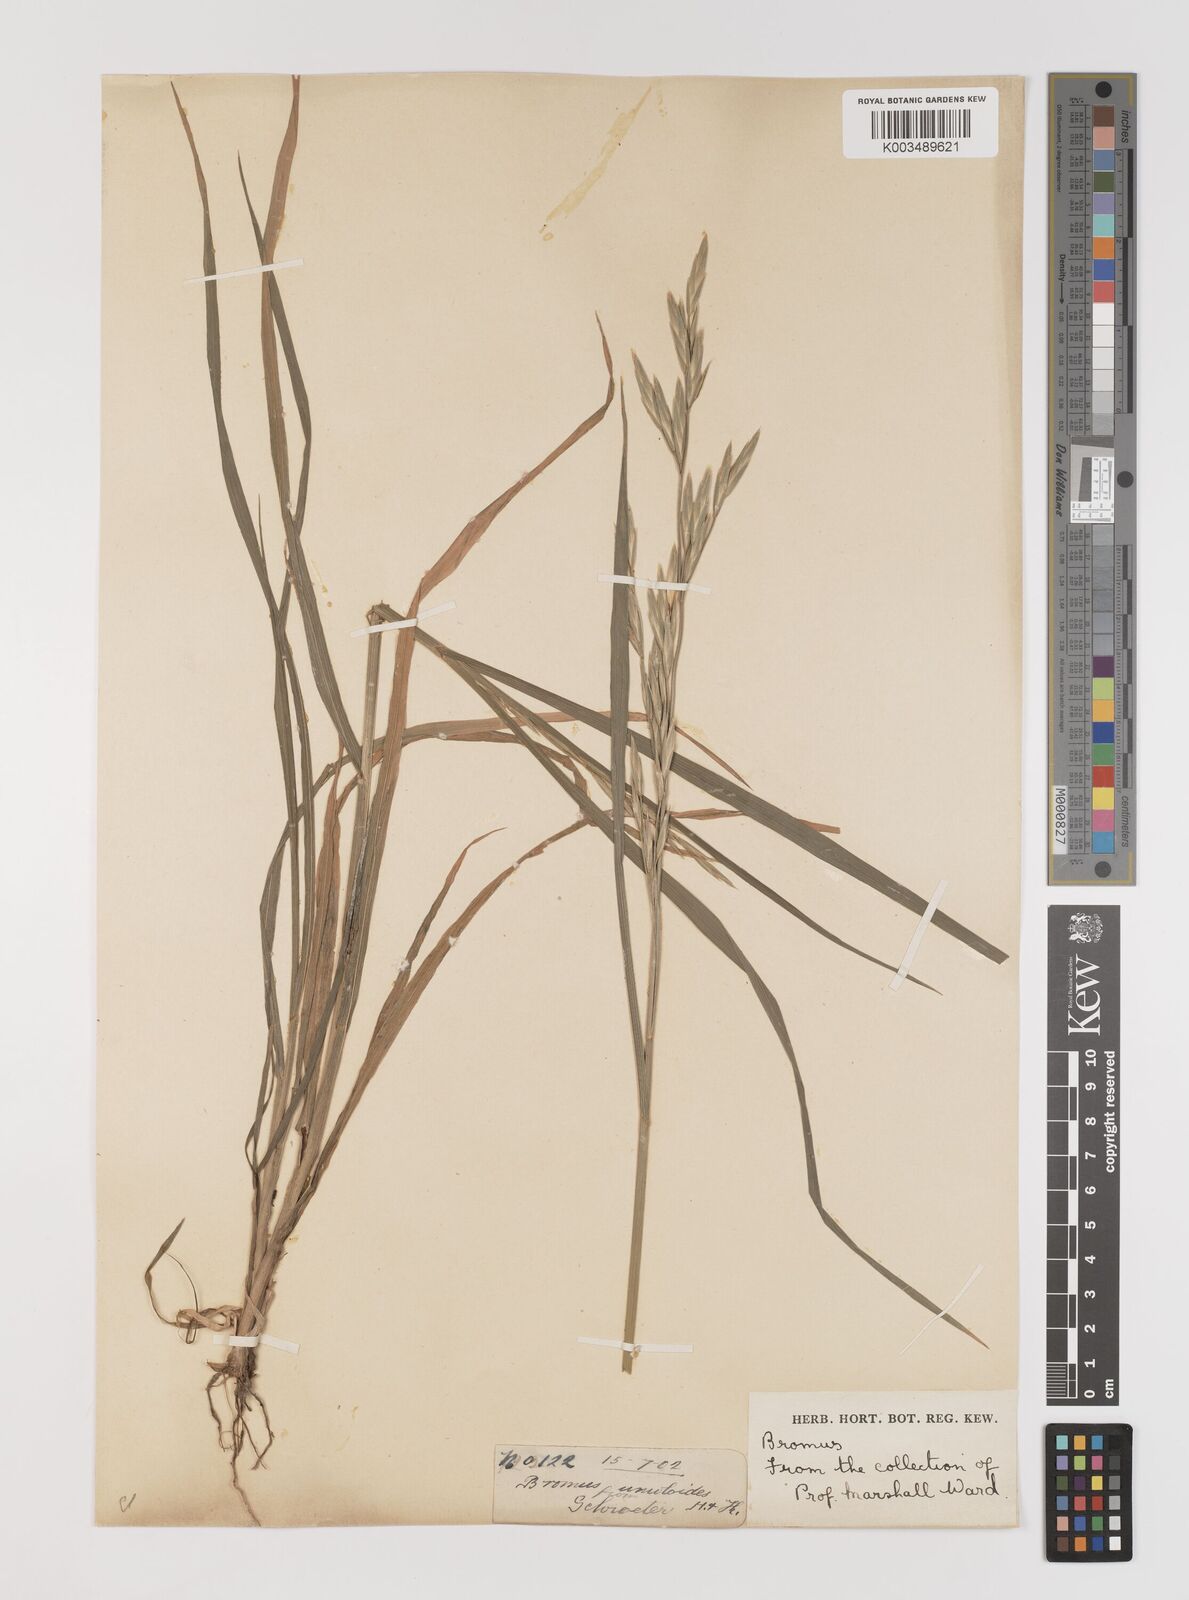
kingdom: Plantae
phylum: Tracheophyta
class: Liliopsida
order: Poales
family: Poaceae
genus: Bromus
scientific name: Bromus catharticus
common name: Rescuegrass
